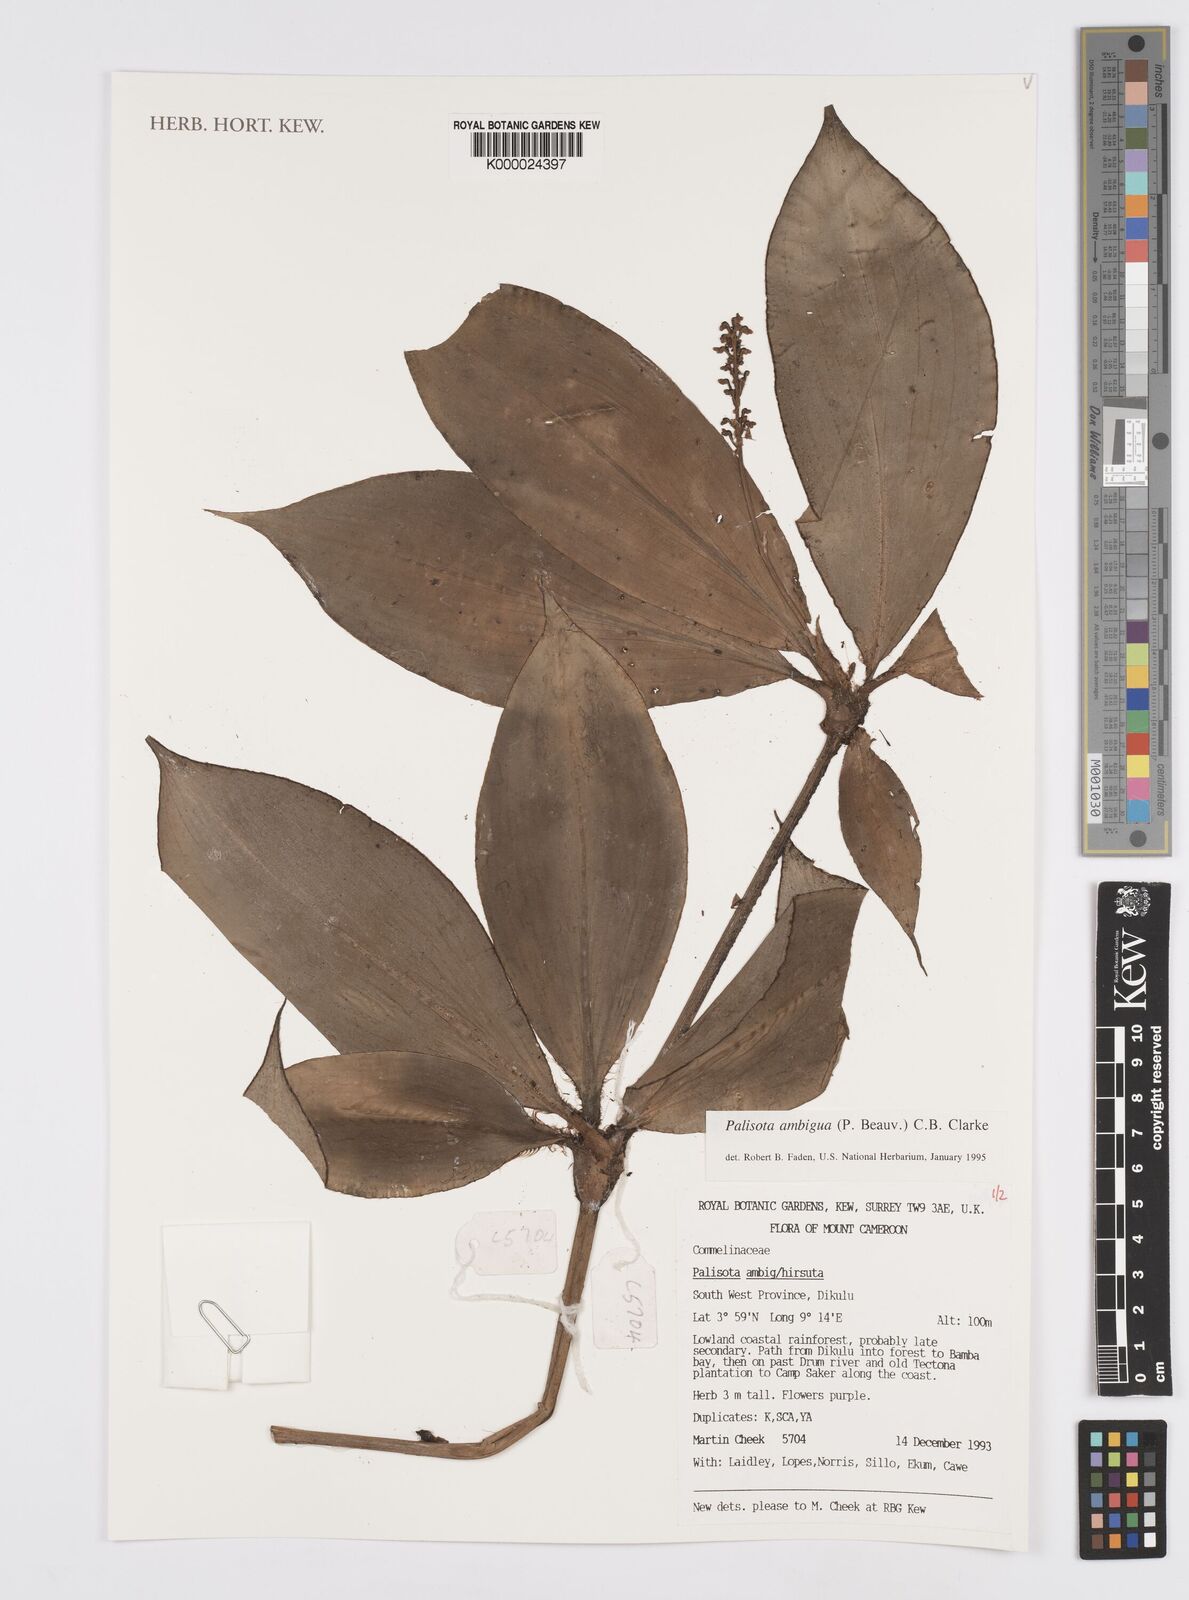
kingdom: Plantae
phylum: Tracheophyta
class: Liliopsida
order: Commelinales
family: Commelinaceae
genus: Palisota
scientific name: Palisota ambigua
